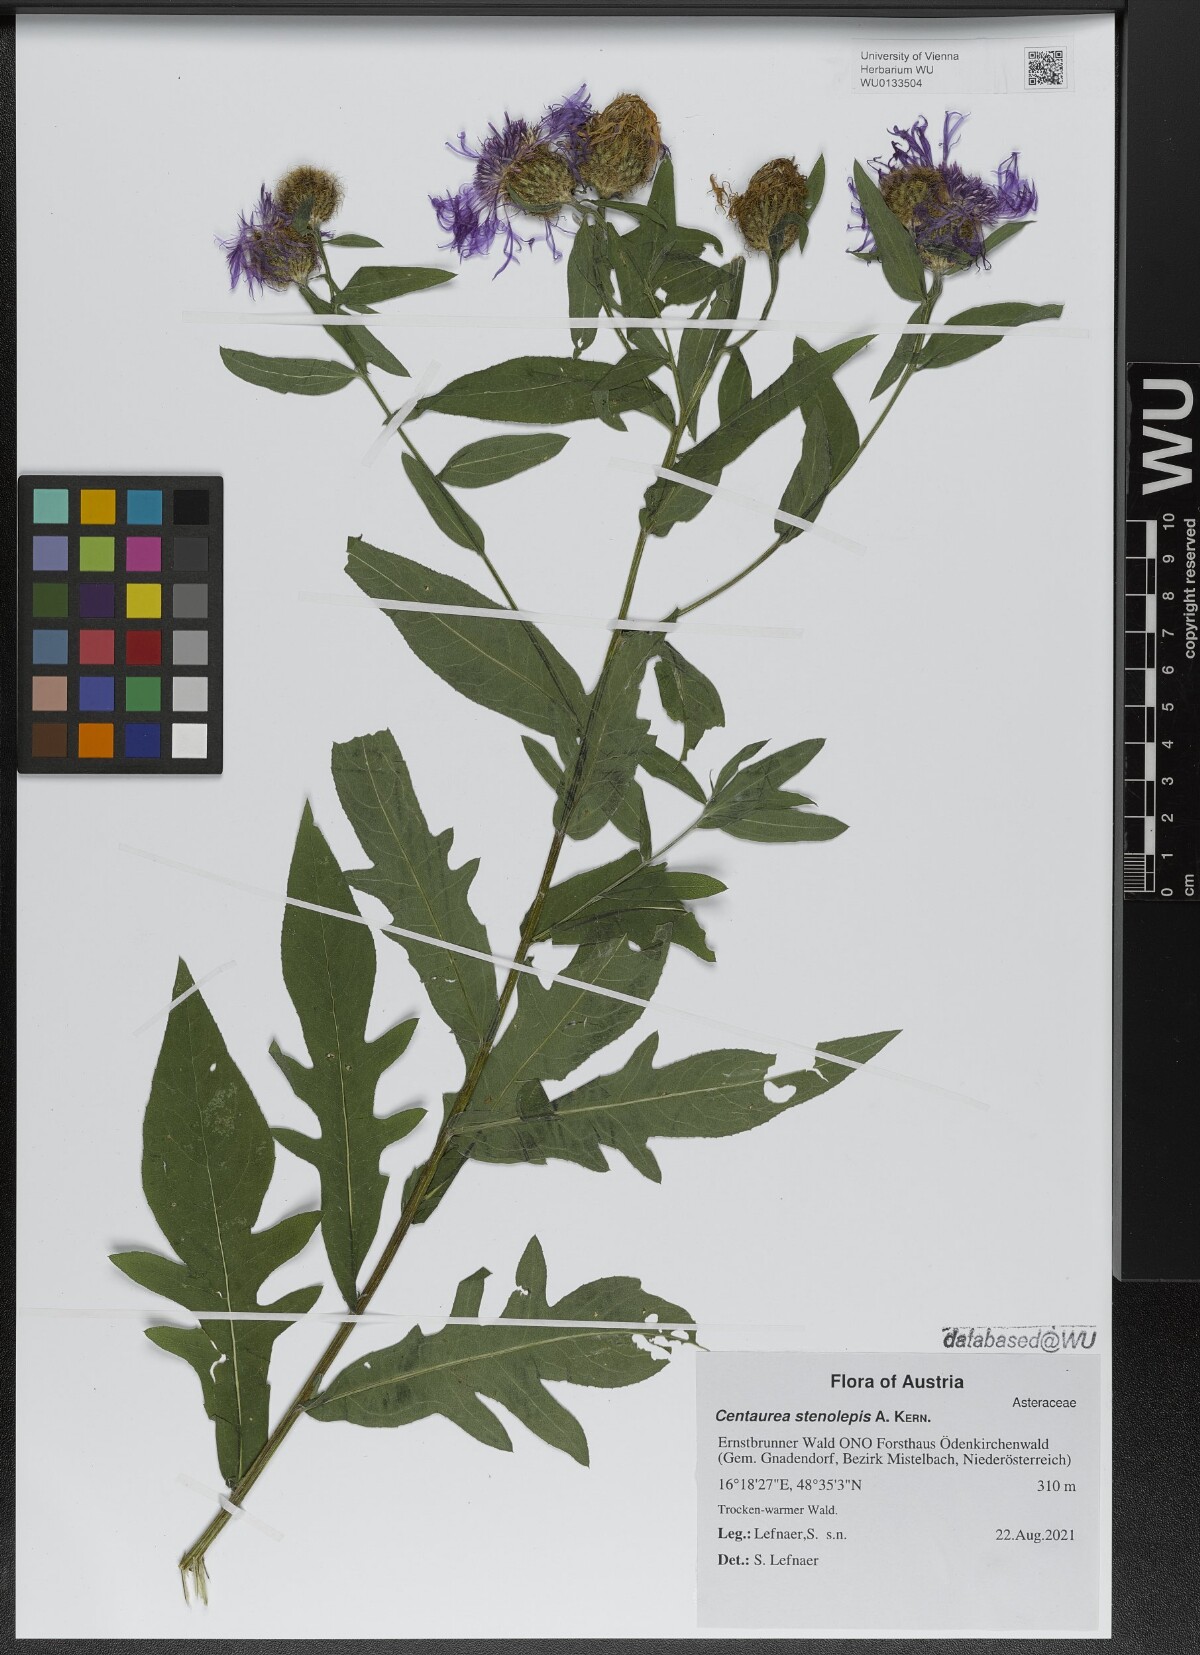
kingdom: Plantae
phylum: Tracheophyta
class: Magnoliopsida
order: Asterales
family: Asteraceae
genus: Centaurea
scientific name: Centaurea stenolepis
